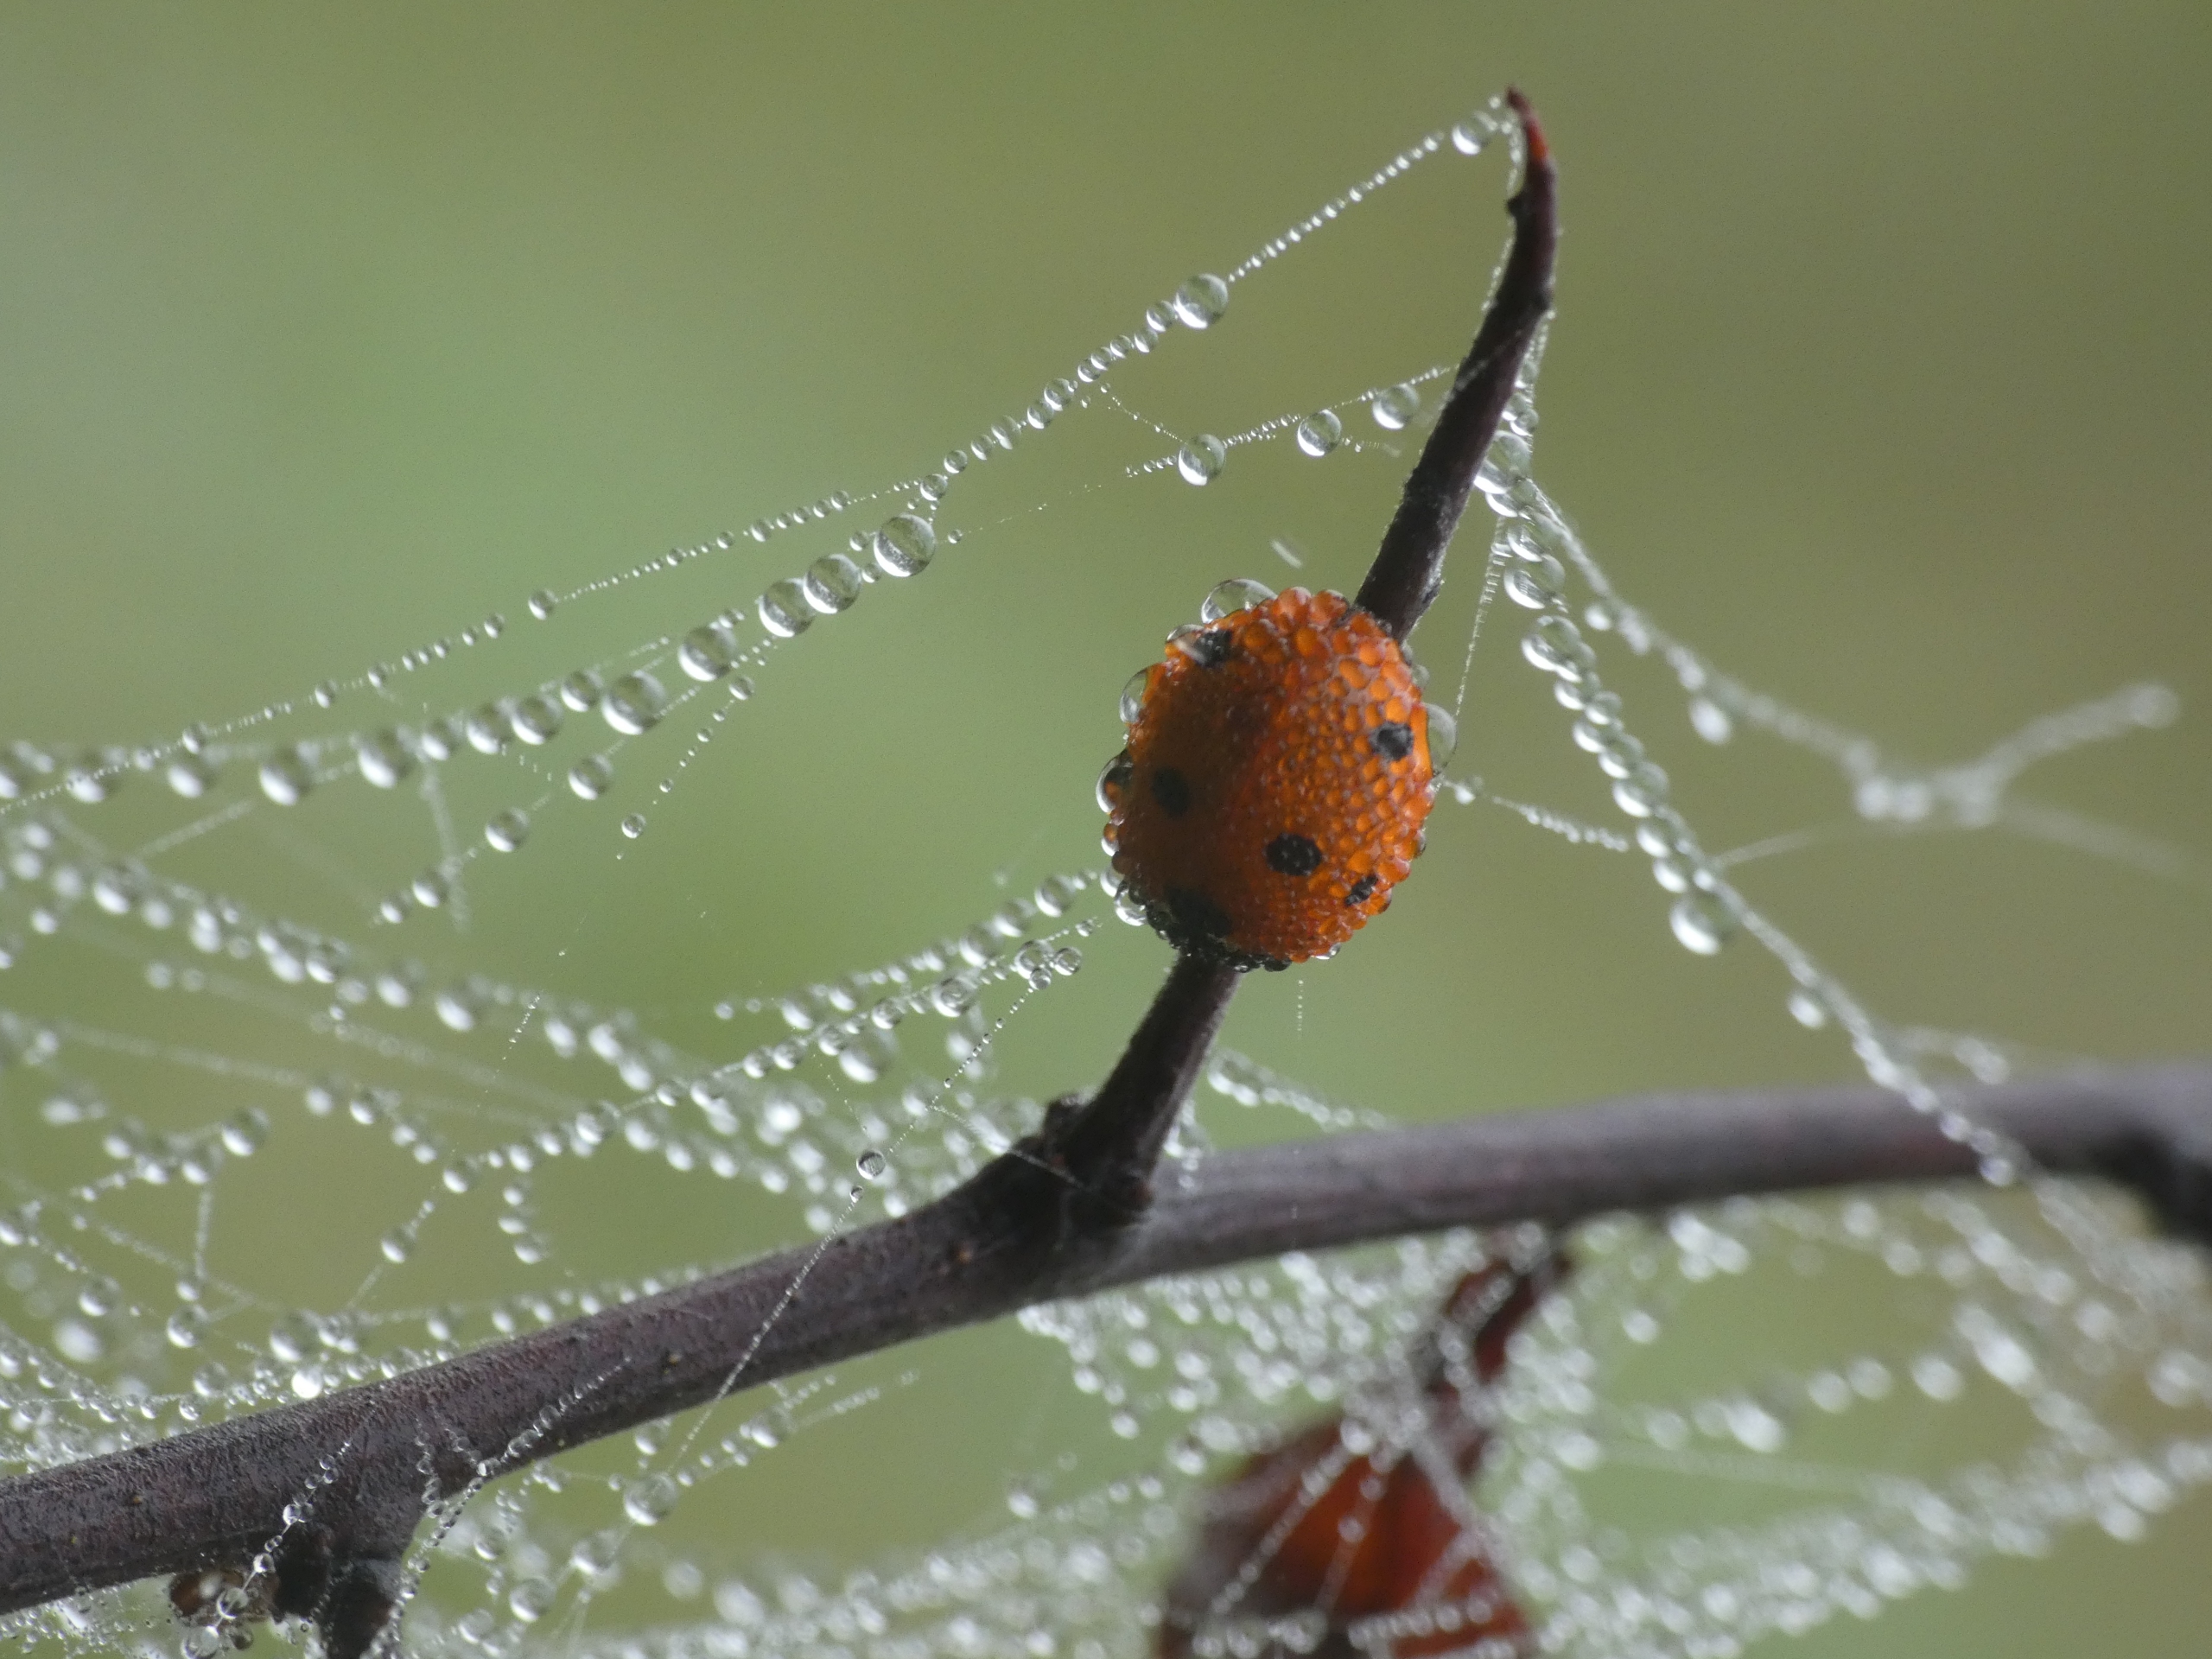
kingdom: Animalia
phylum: Arthropoda
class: Insecta
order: Coleoptera
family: Coccinellidae
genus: Coccinella
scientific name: Coccinella septempunctata
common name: Syvplettet mariehøne
